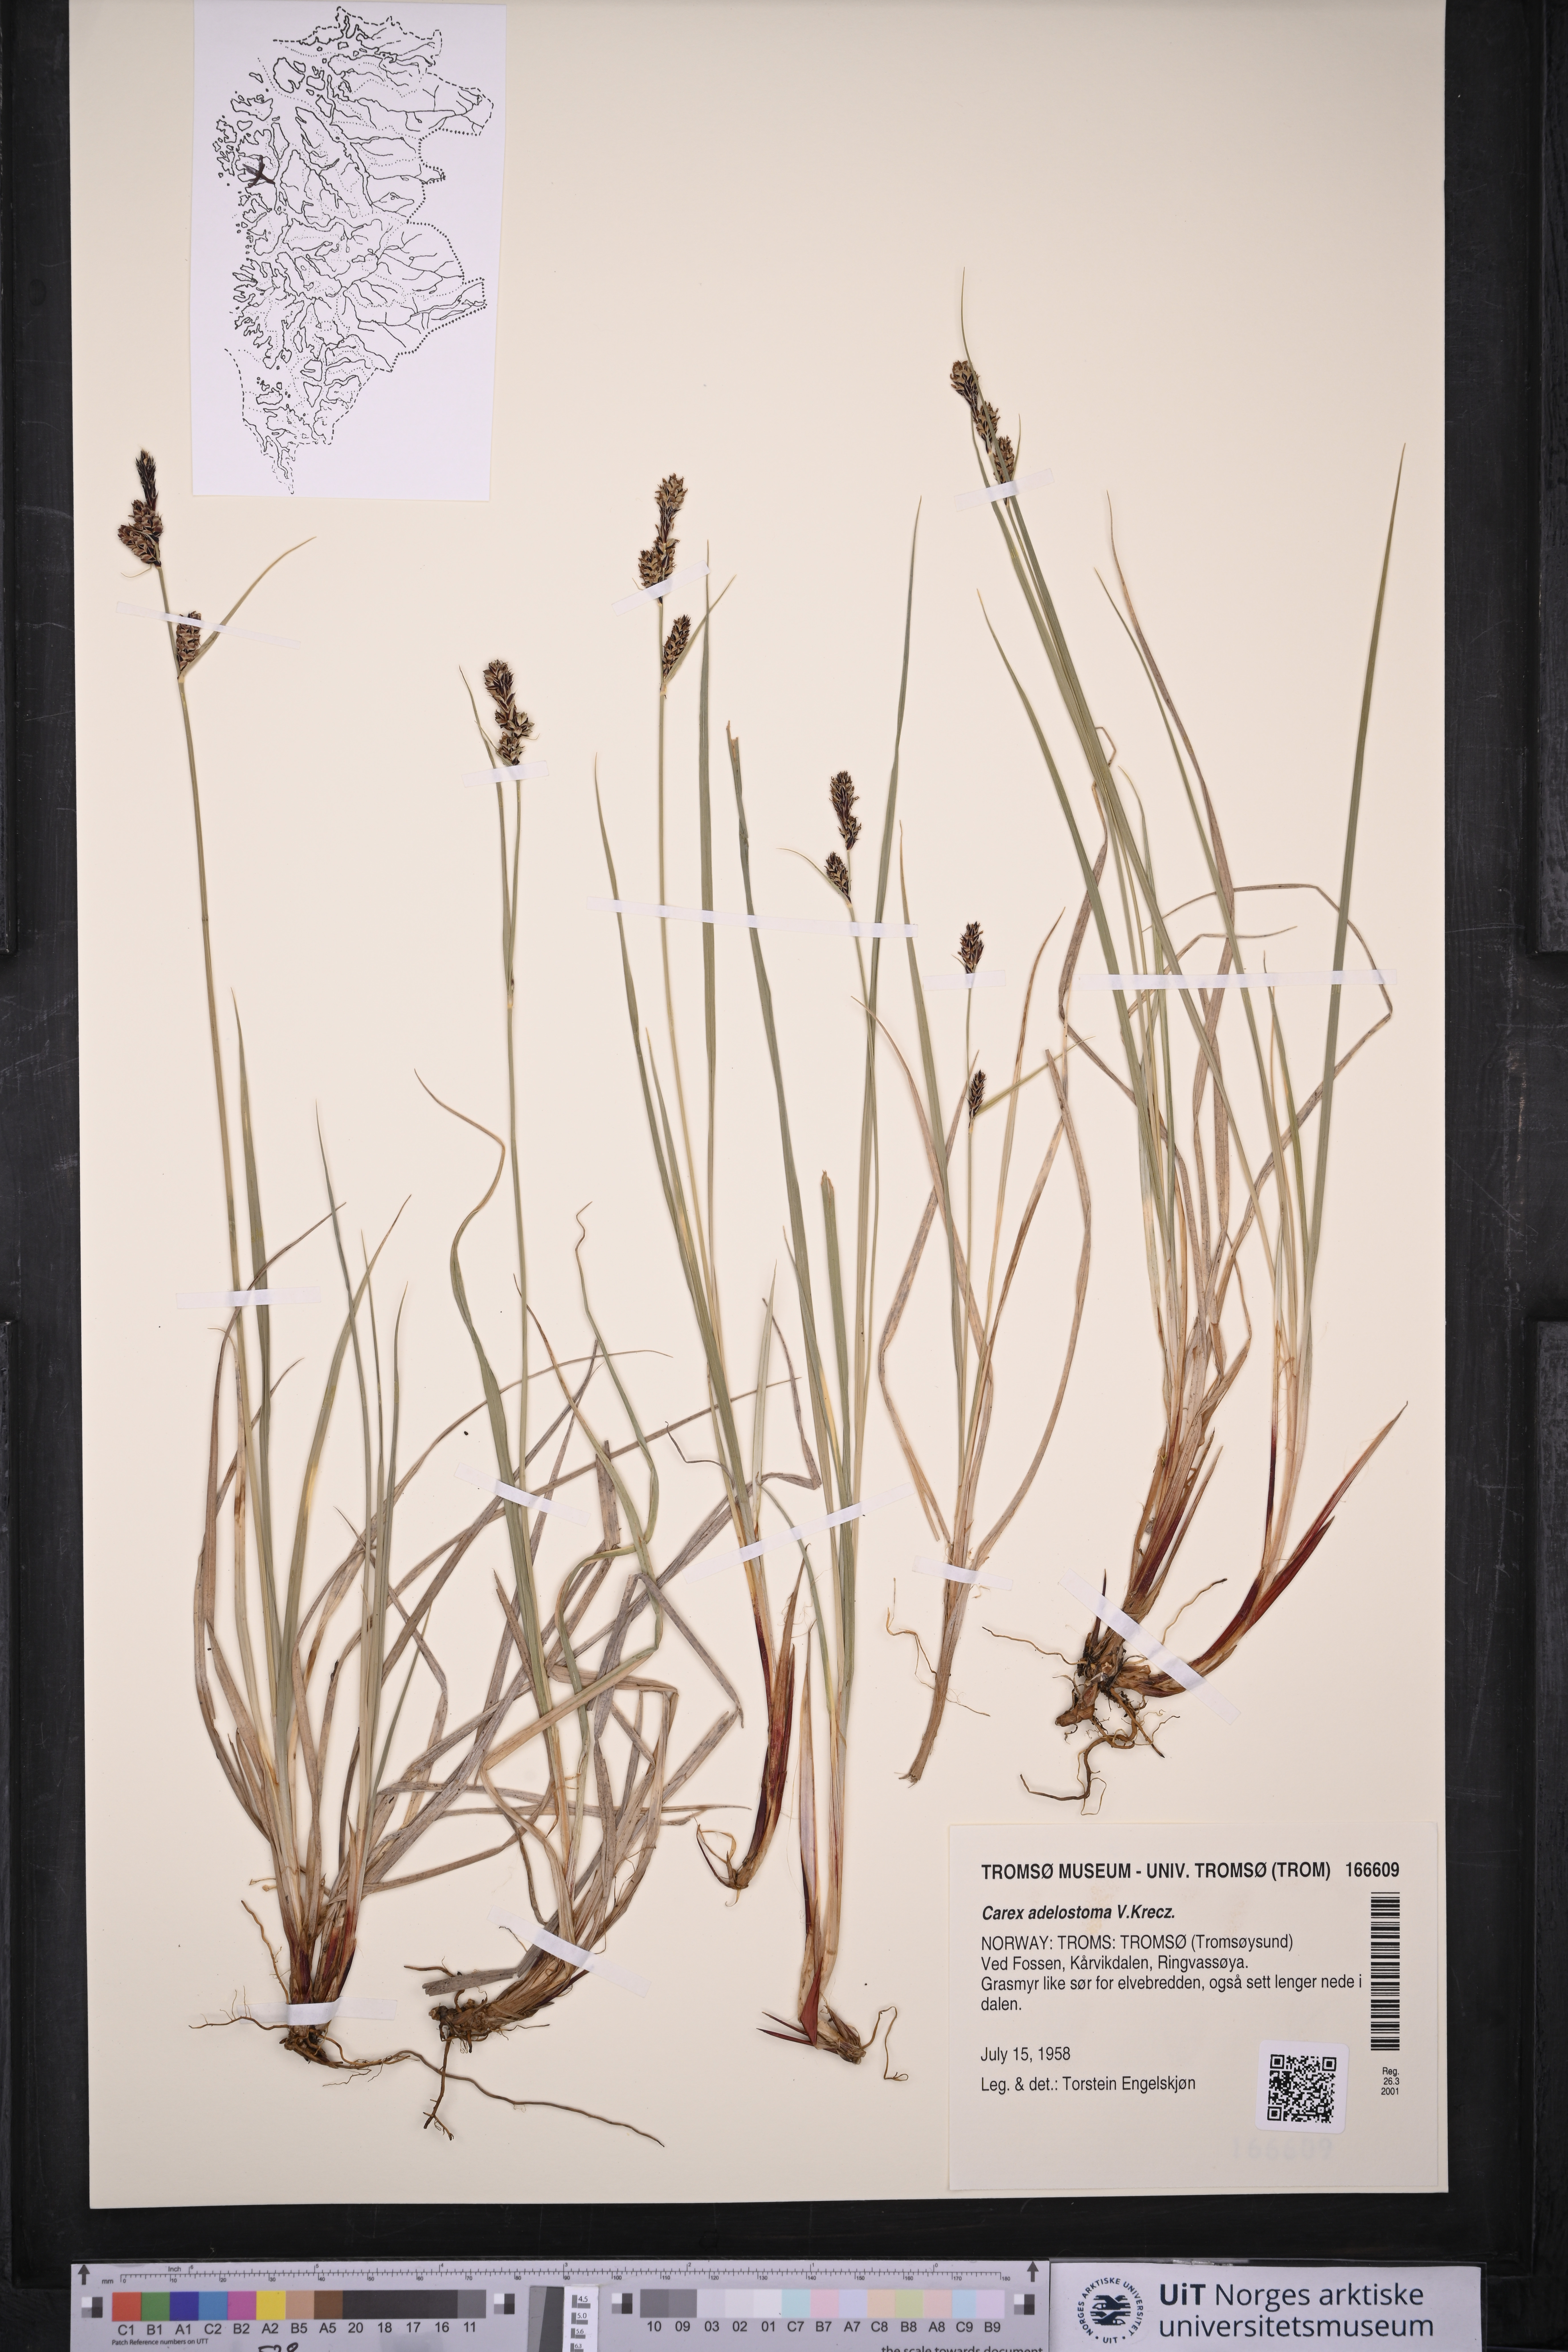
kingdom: Plantae
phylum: Tracheophyta
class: Liliopsida
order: Poales
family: Cyperaceae
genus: Carex
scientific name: Carex adelostoma
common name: Circumpolar sedge
